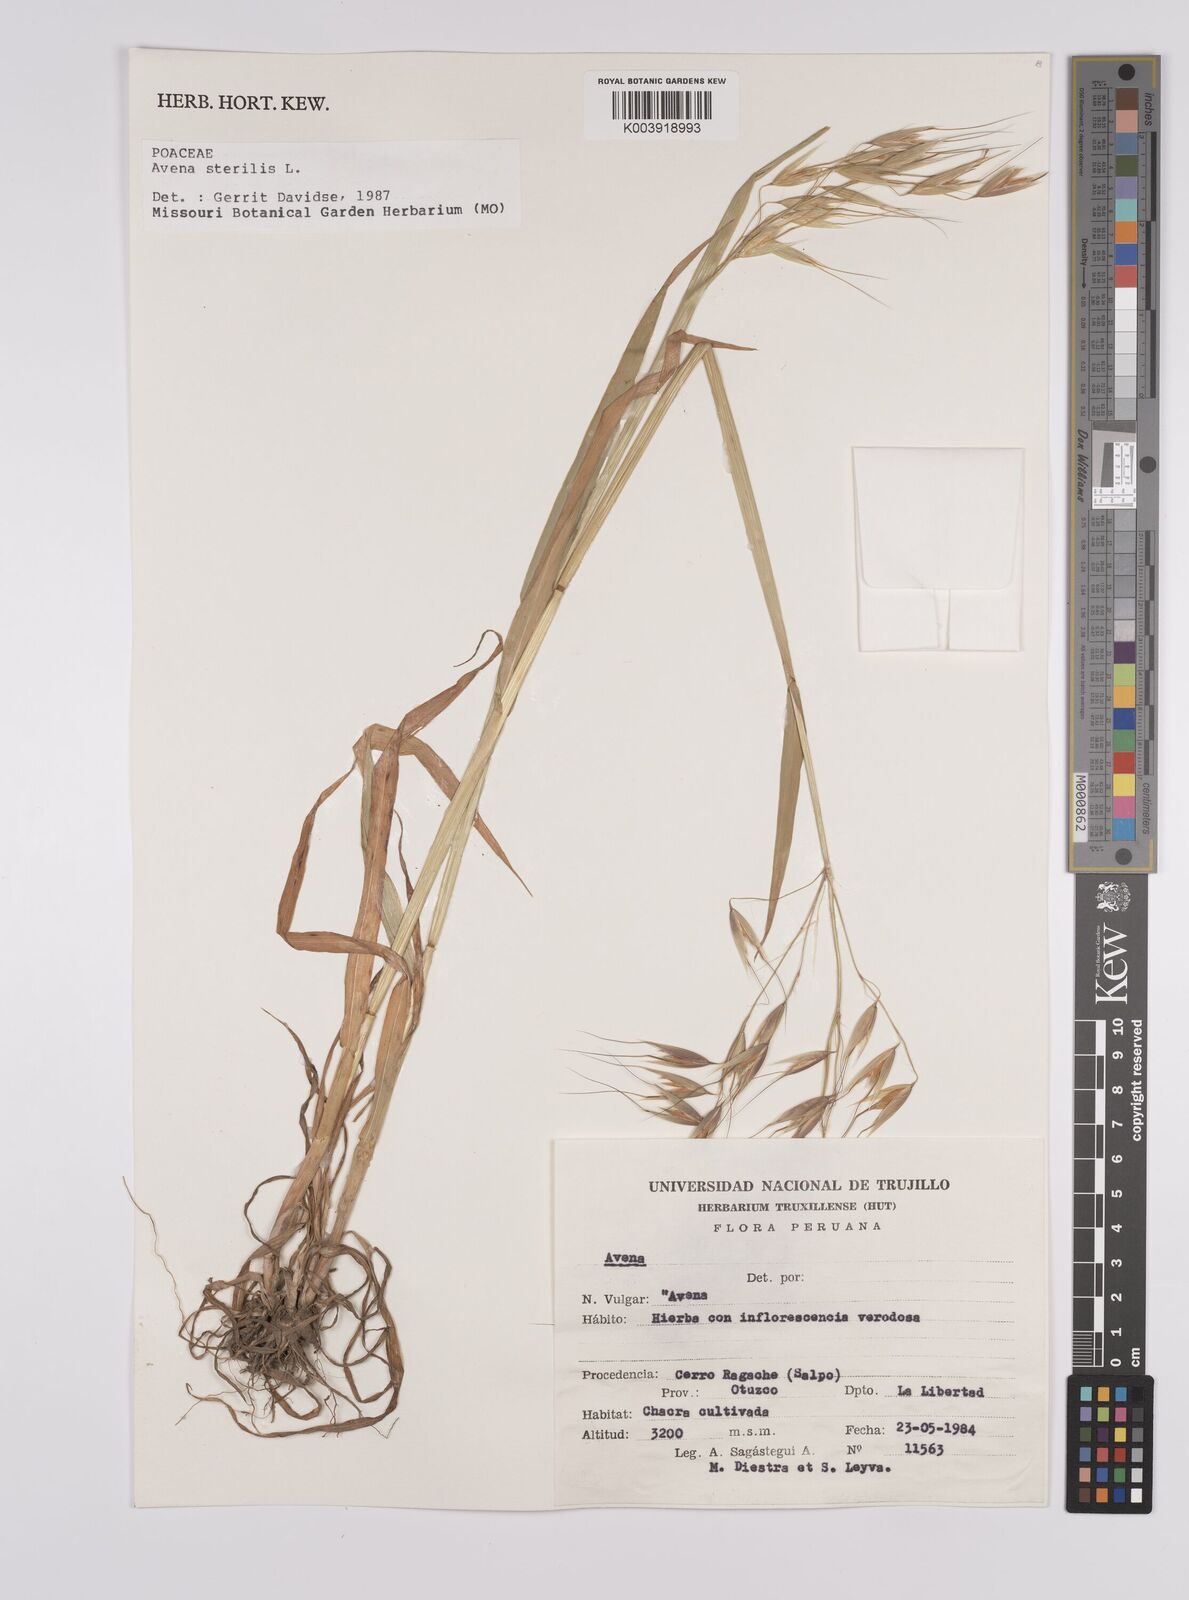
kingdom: Plantae
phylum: Tracheophyta
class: Liliopsida
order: Poales
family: Poaceae
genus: Avena
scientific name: Avena sterilis
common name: Animated oat
